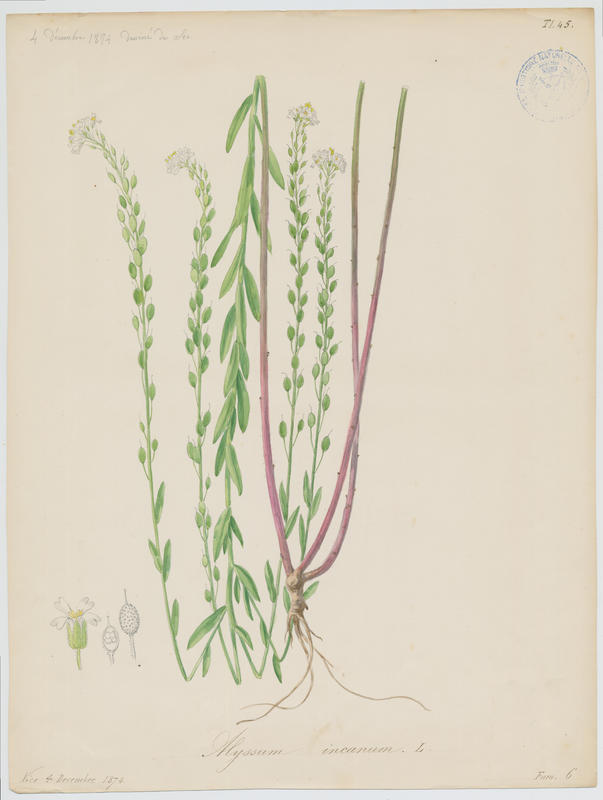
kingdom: Plantae
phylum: Tracheophyta
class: Magnoliopsida
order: Brassicales
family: Brassicaceae
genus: Berteroa
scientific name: Berteroa incana
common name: Hoary alison
